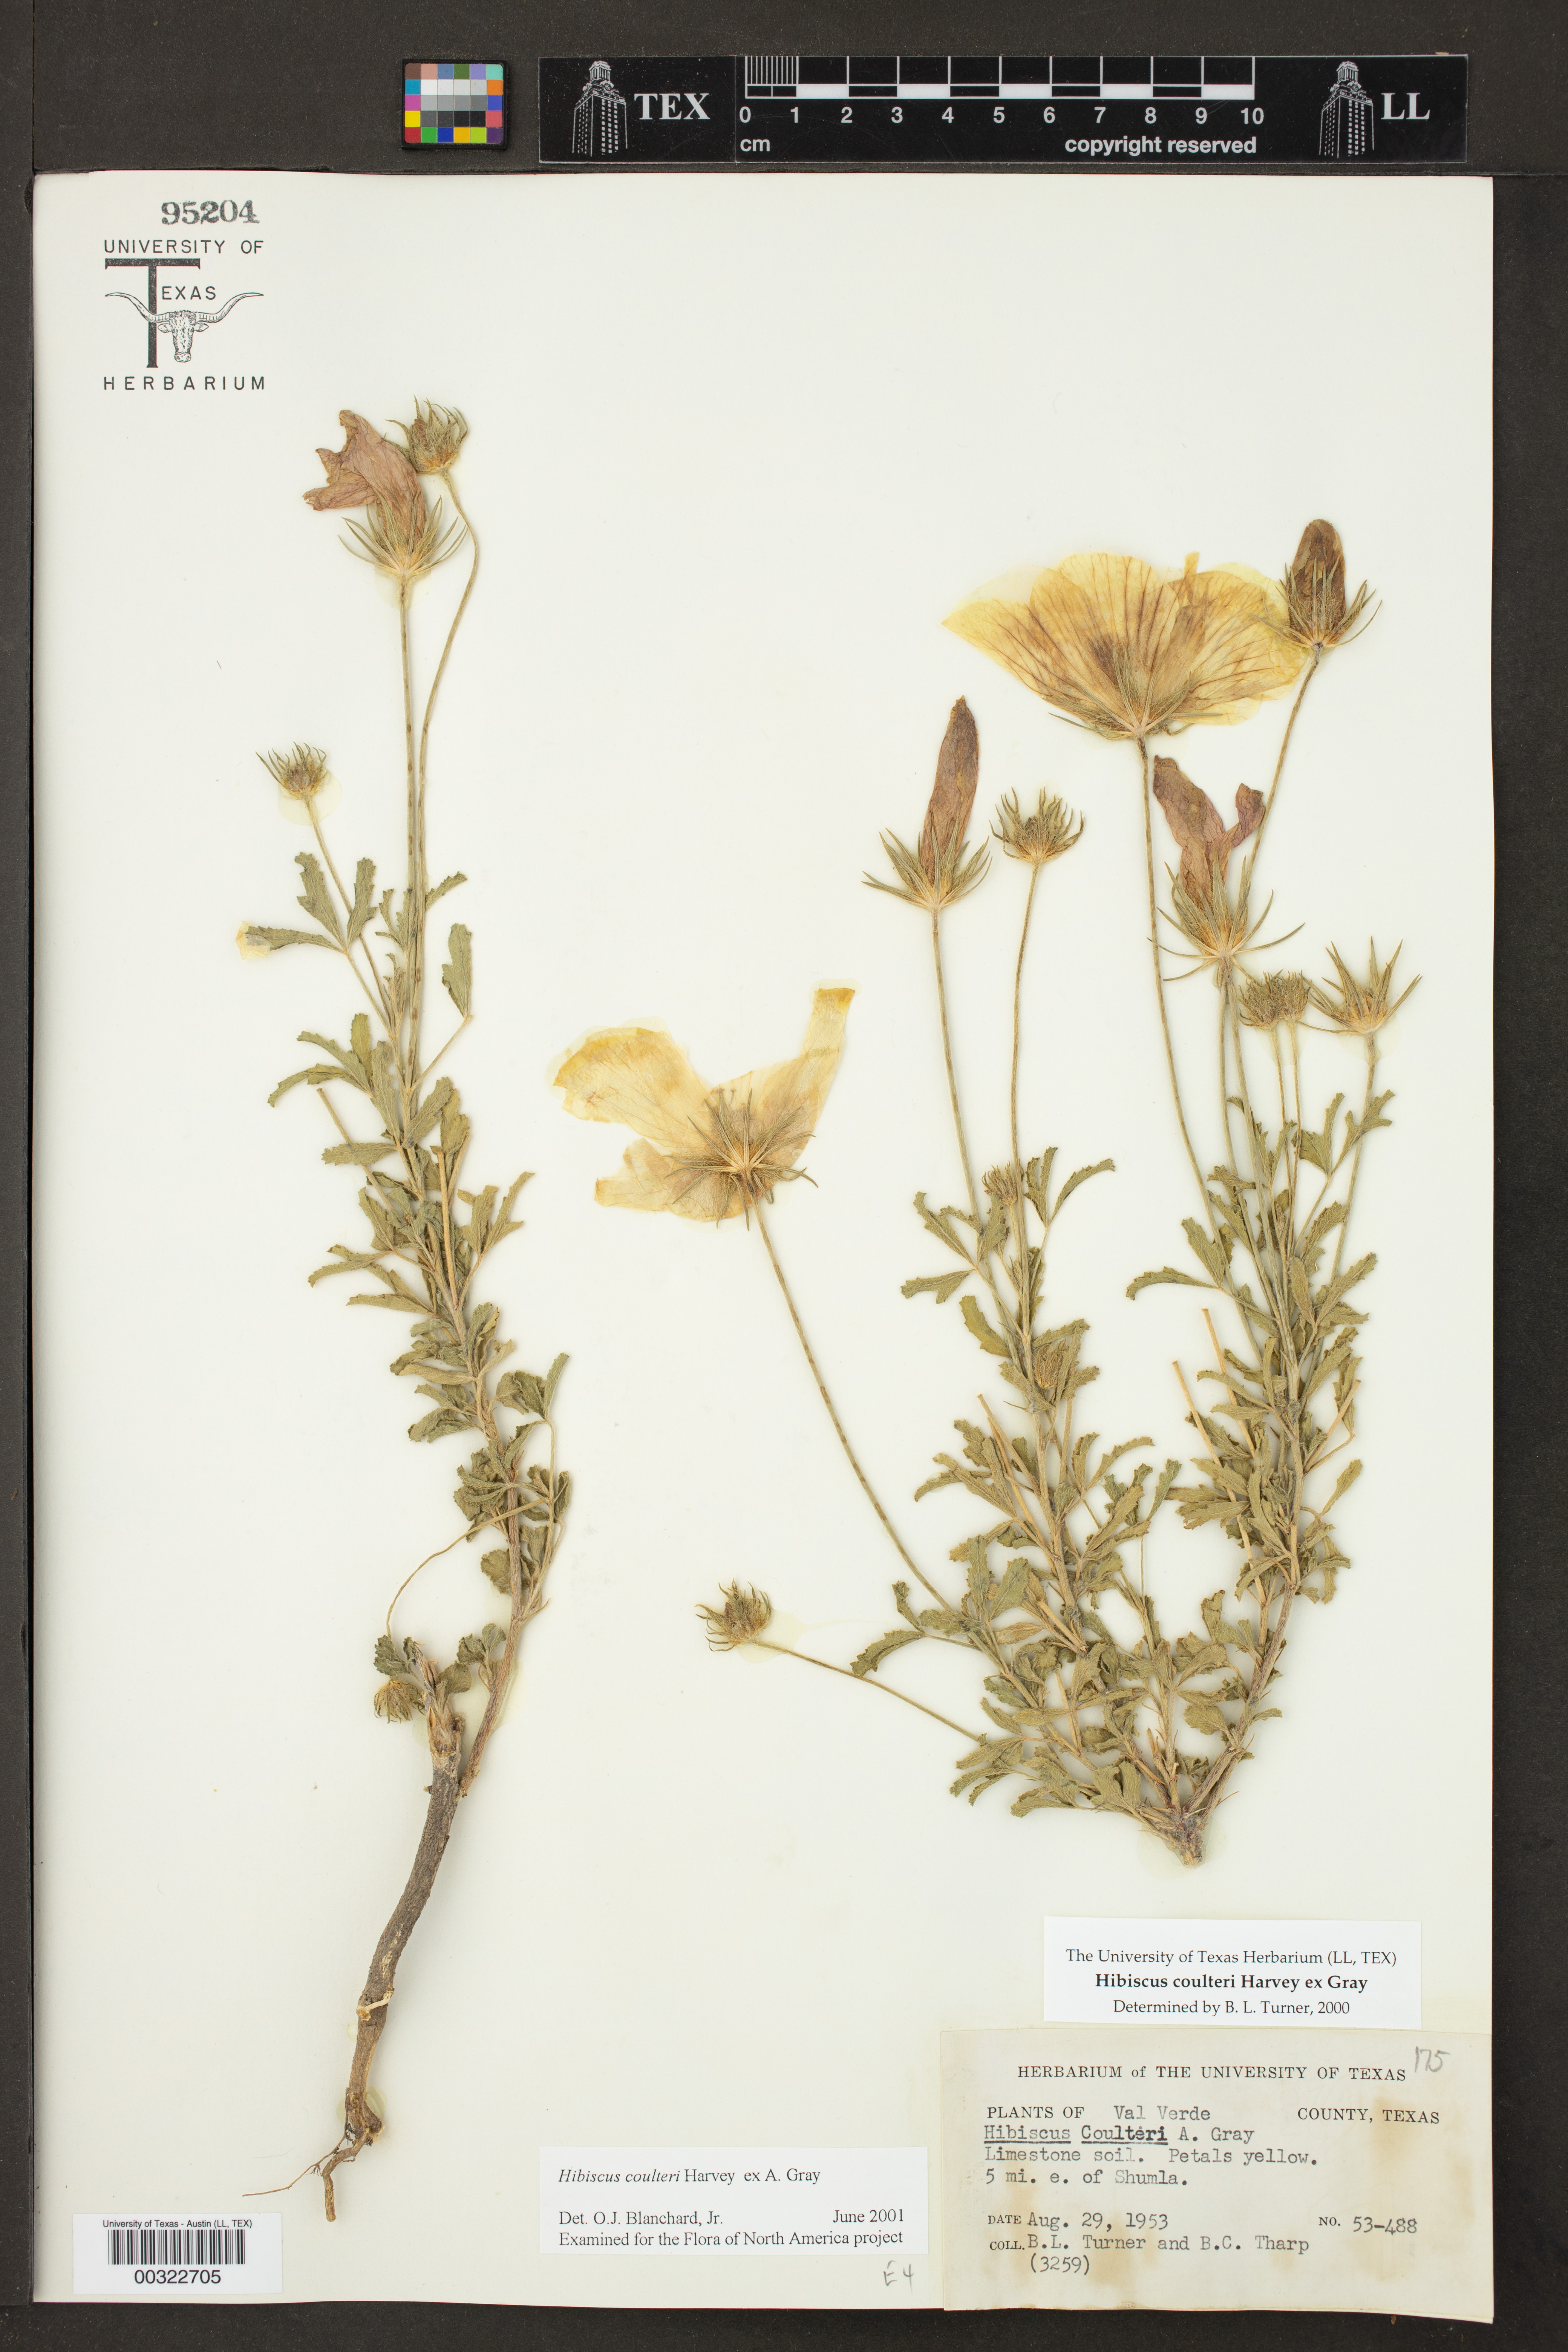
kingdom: Plantae
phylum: Tracheophyta
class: Magnoliopsida
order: Malvales
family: Malvaceae
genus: Hibiscus
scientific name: Hibiscus coulteri
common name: Desert rose-mallow
